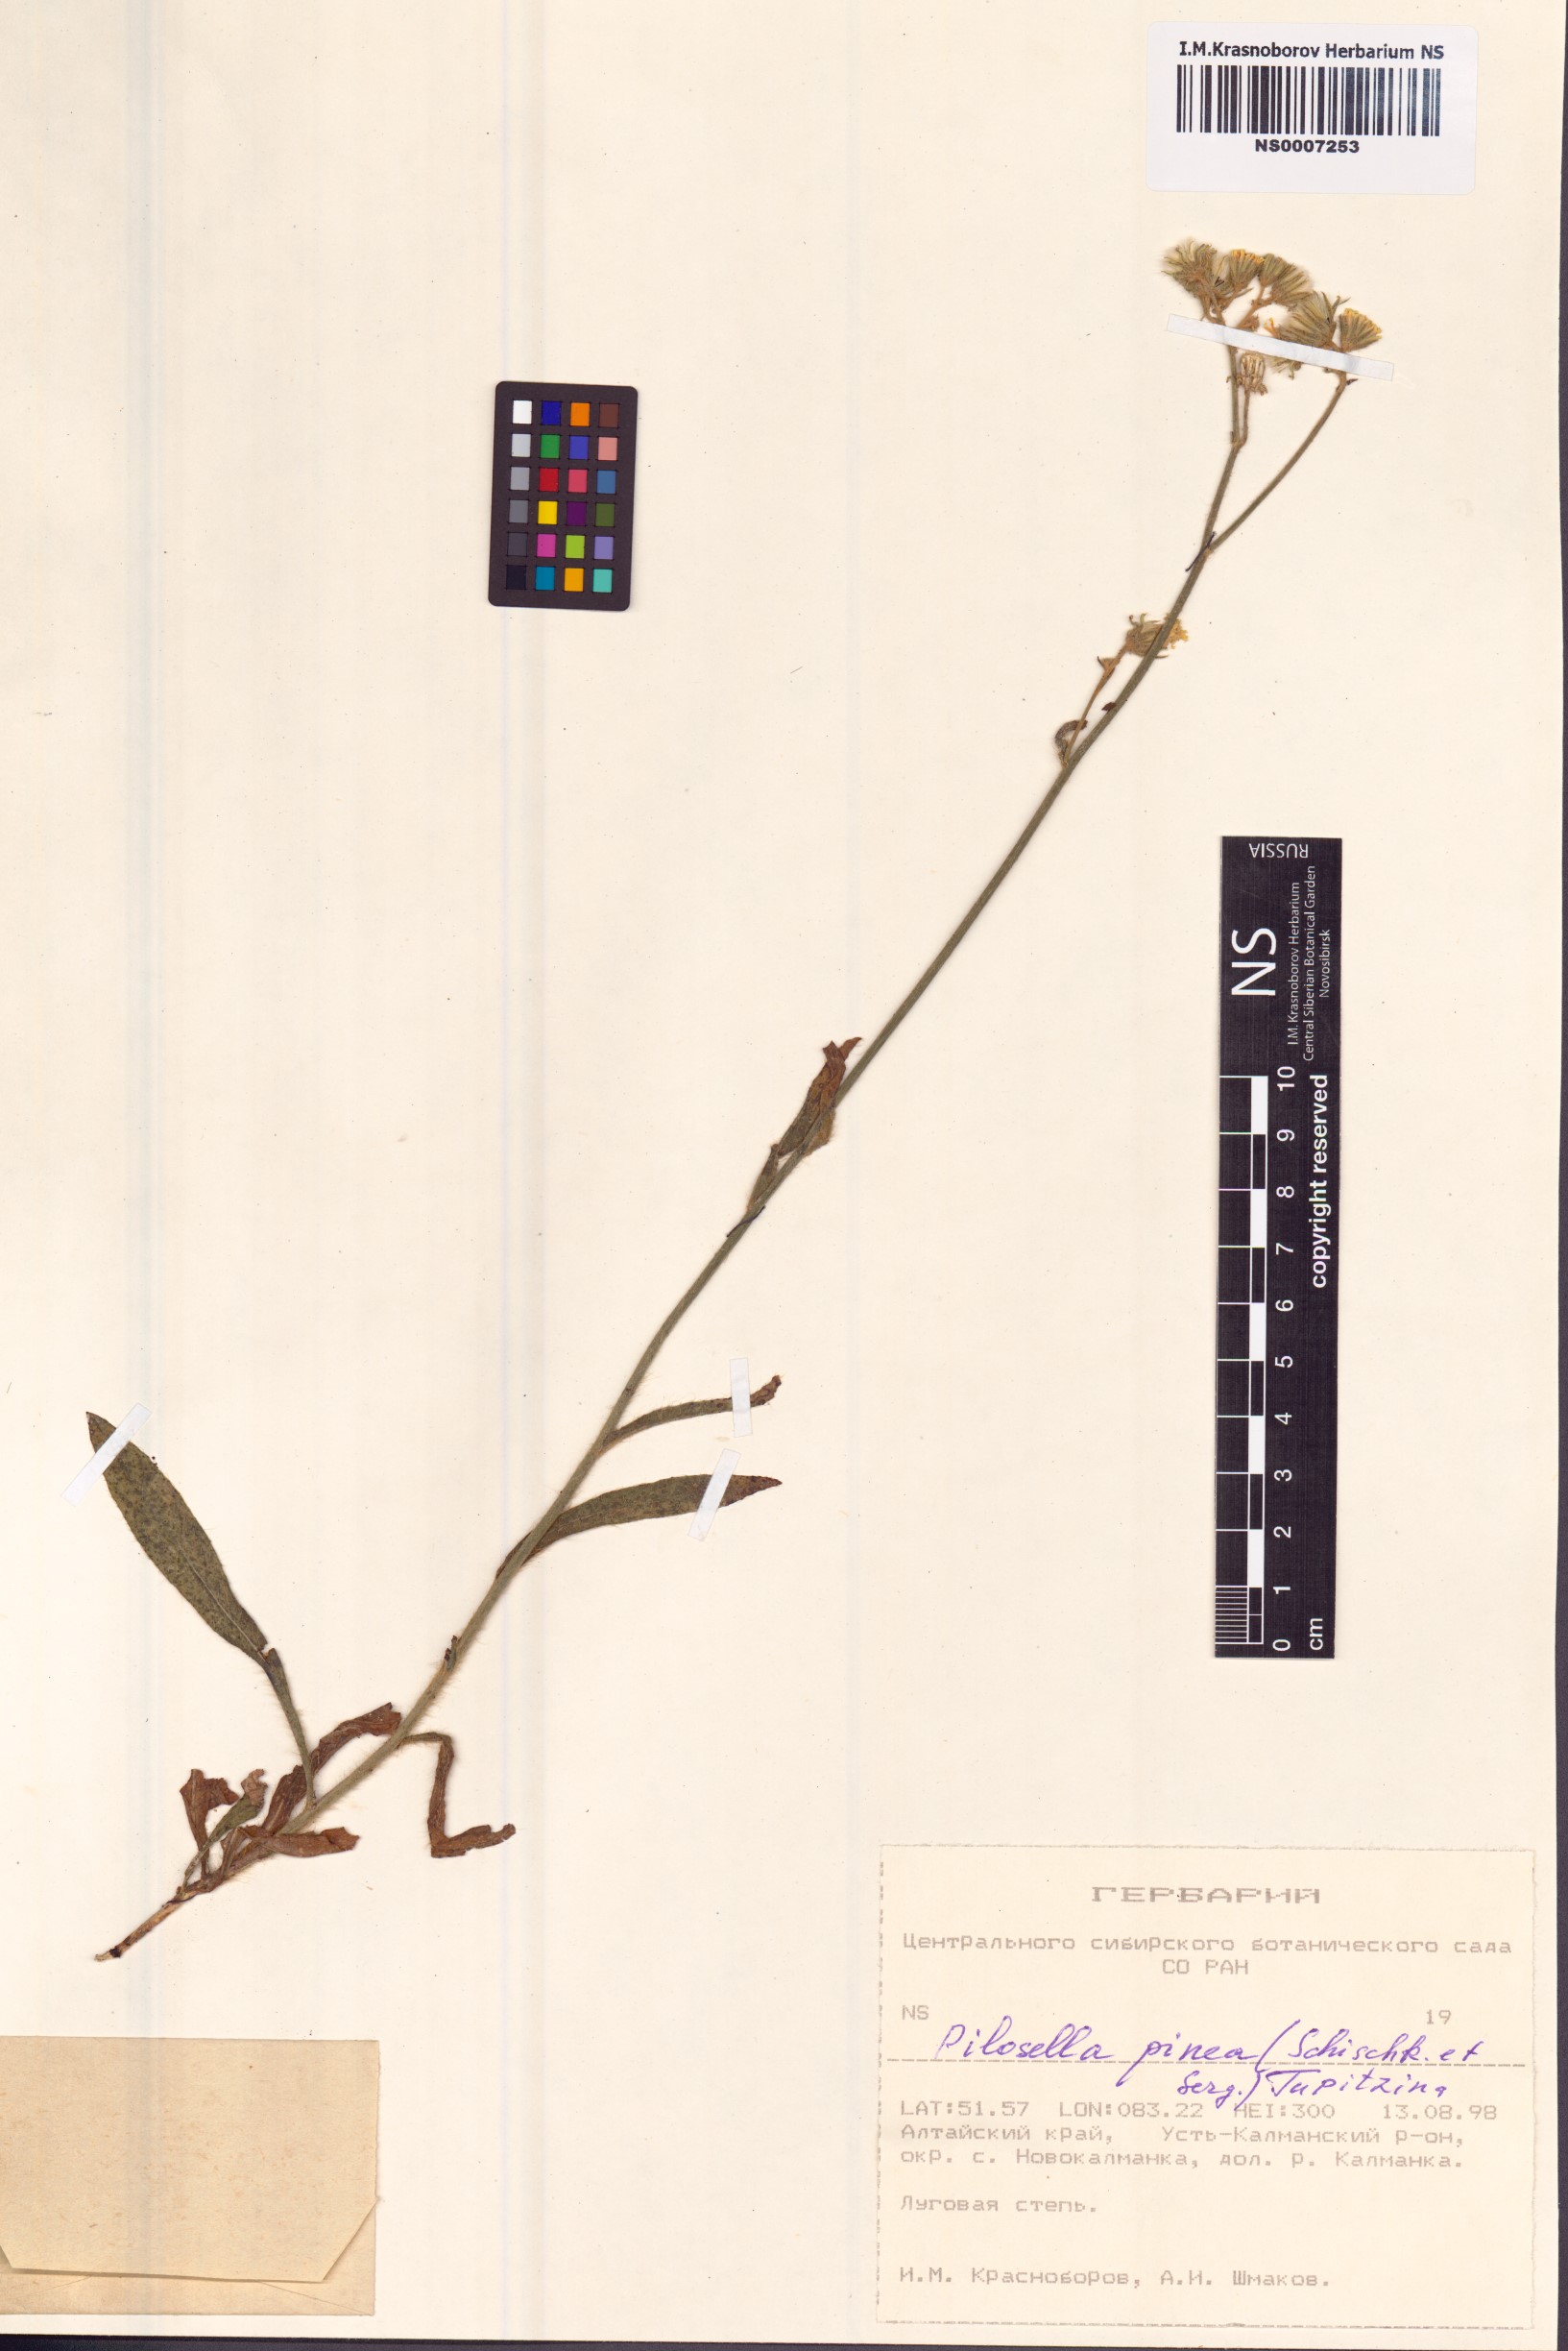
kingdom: Plantae
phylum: Tracheophyta
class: Magnoliopsida
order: Asterales
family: Asteraceae
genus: Pilosella
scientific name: Pilosella pinea
